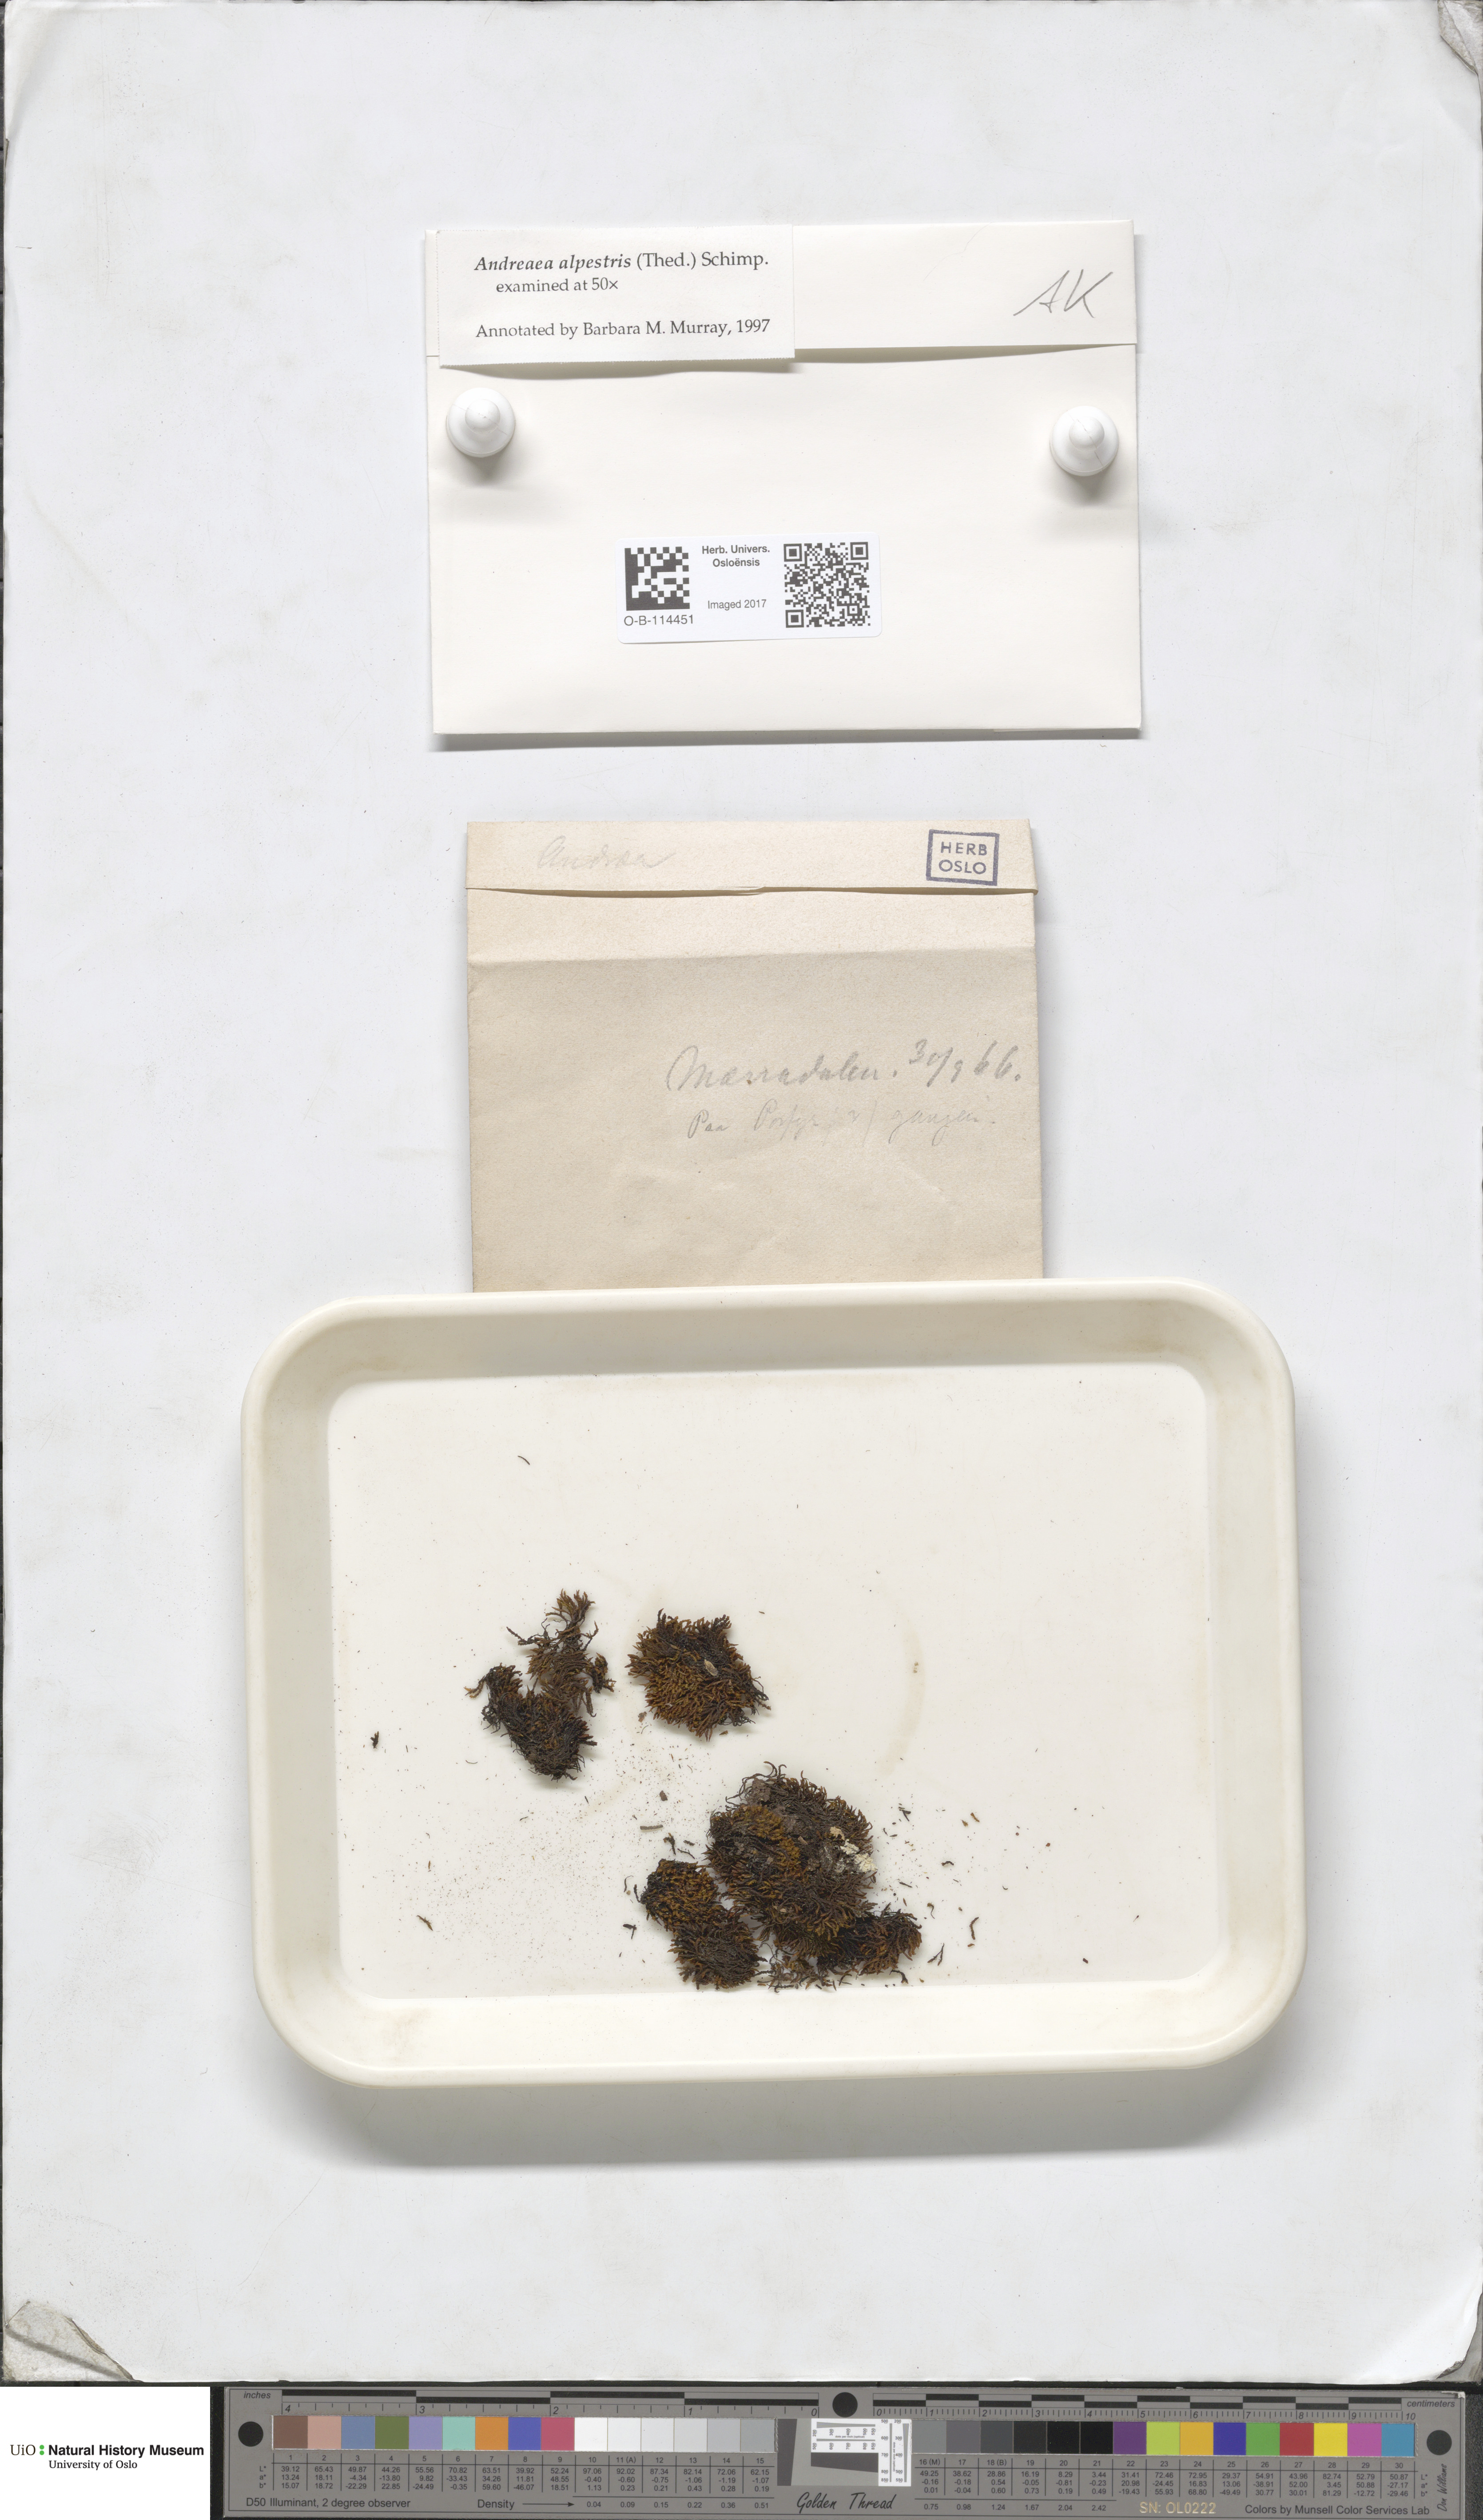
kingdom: Plantae
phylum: Bryophyta
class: Andreaeopsida
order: Andreaeales
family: Andreaeaceae
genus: Andreaea
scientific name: Andreaea alpestris
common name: Slender rock-moss
